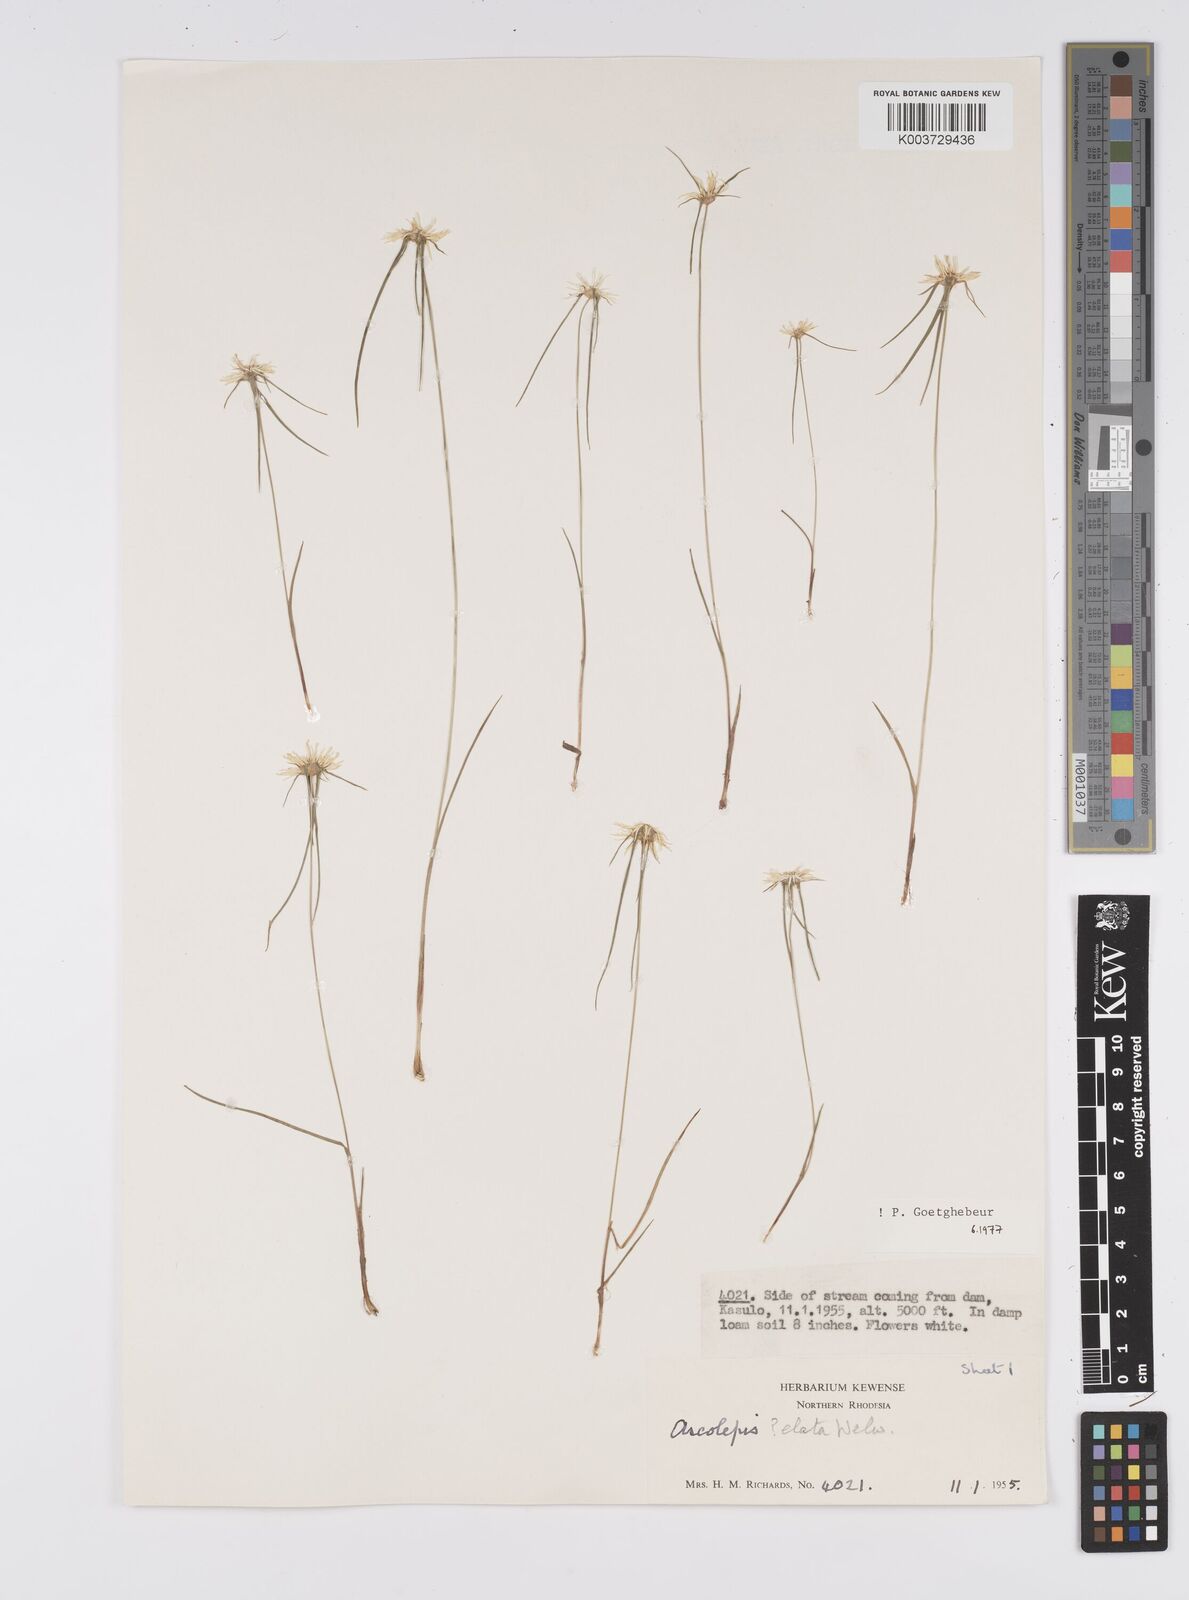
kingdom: Plantae
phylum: Tracheophyta
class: Liliopsida
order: Poales
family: Cyperaceae
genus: Cyperus
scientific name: Cyperus
